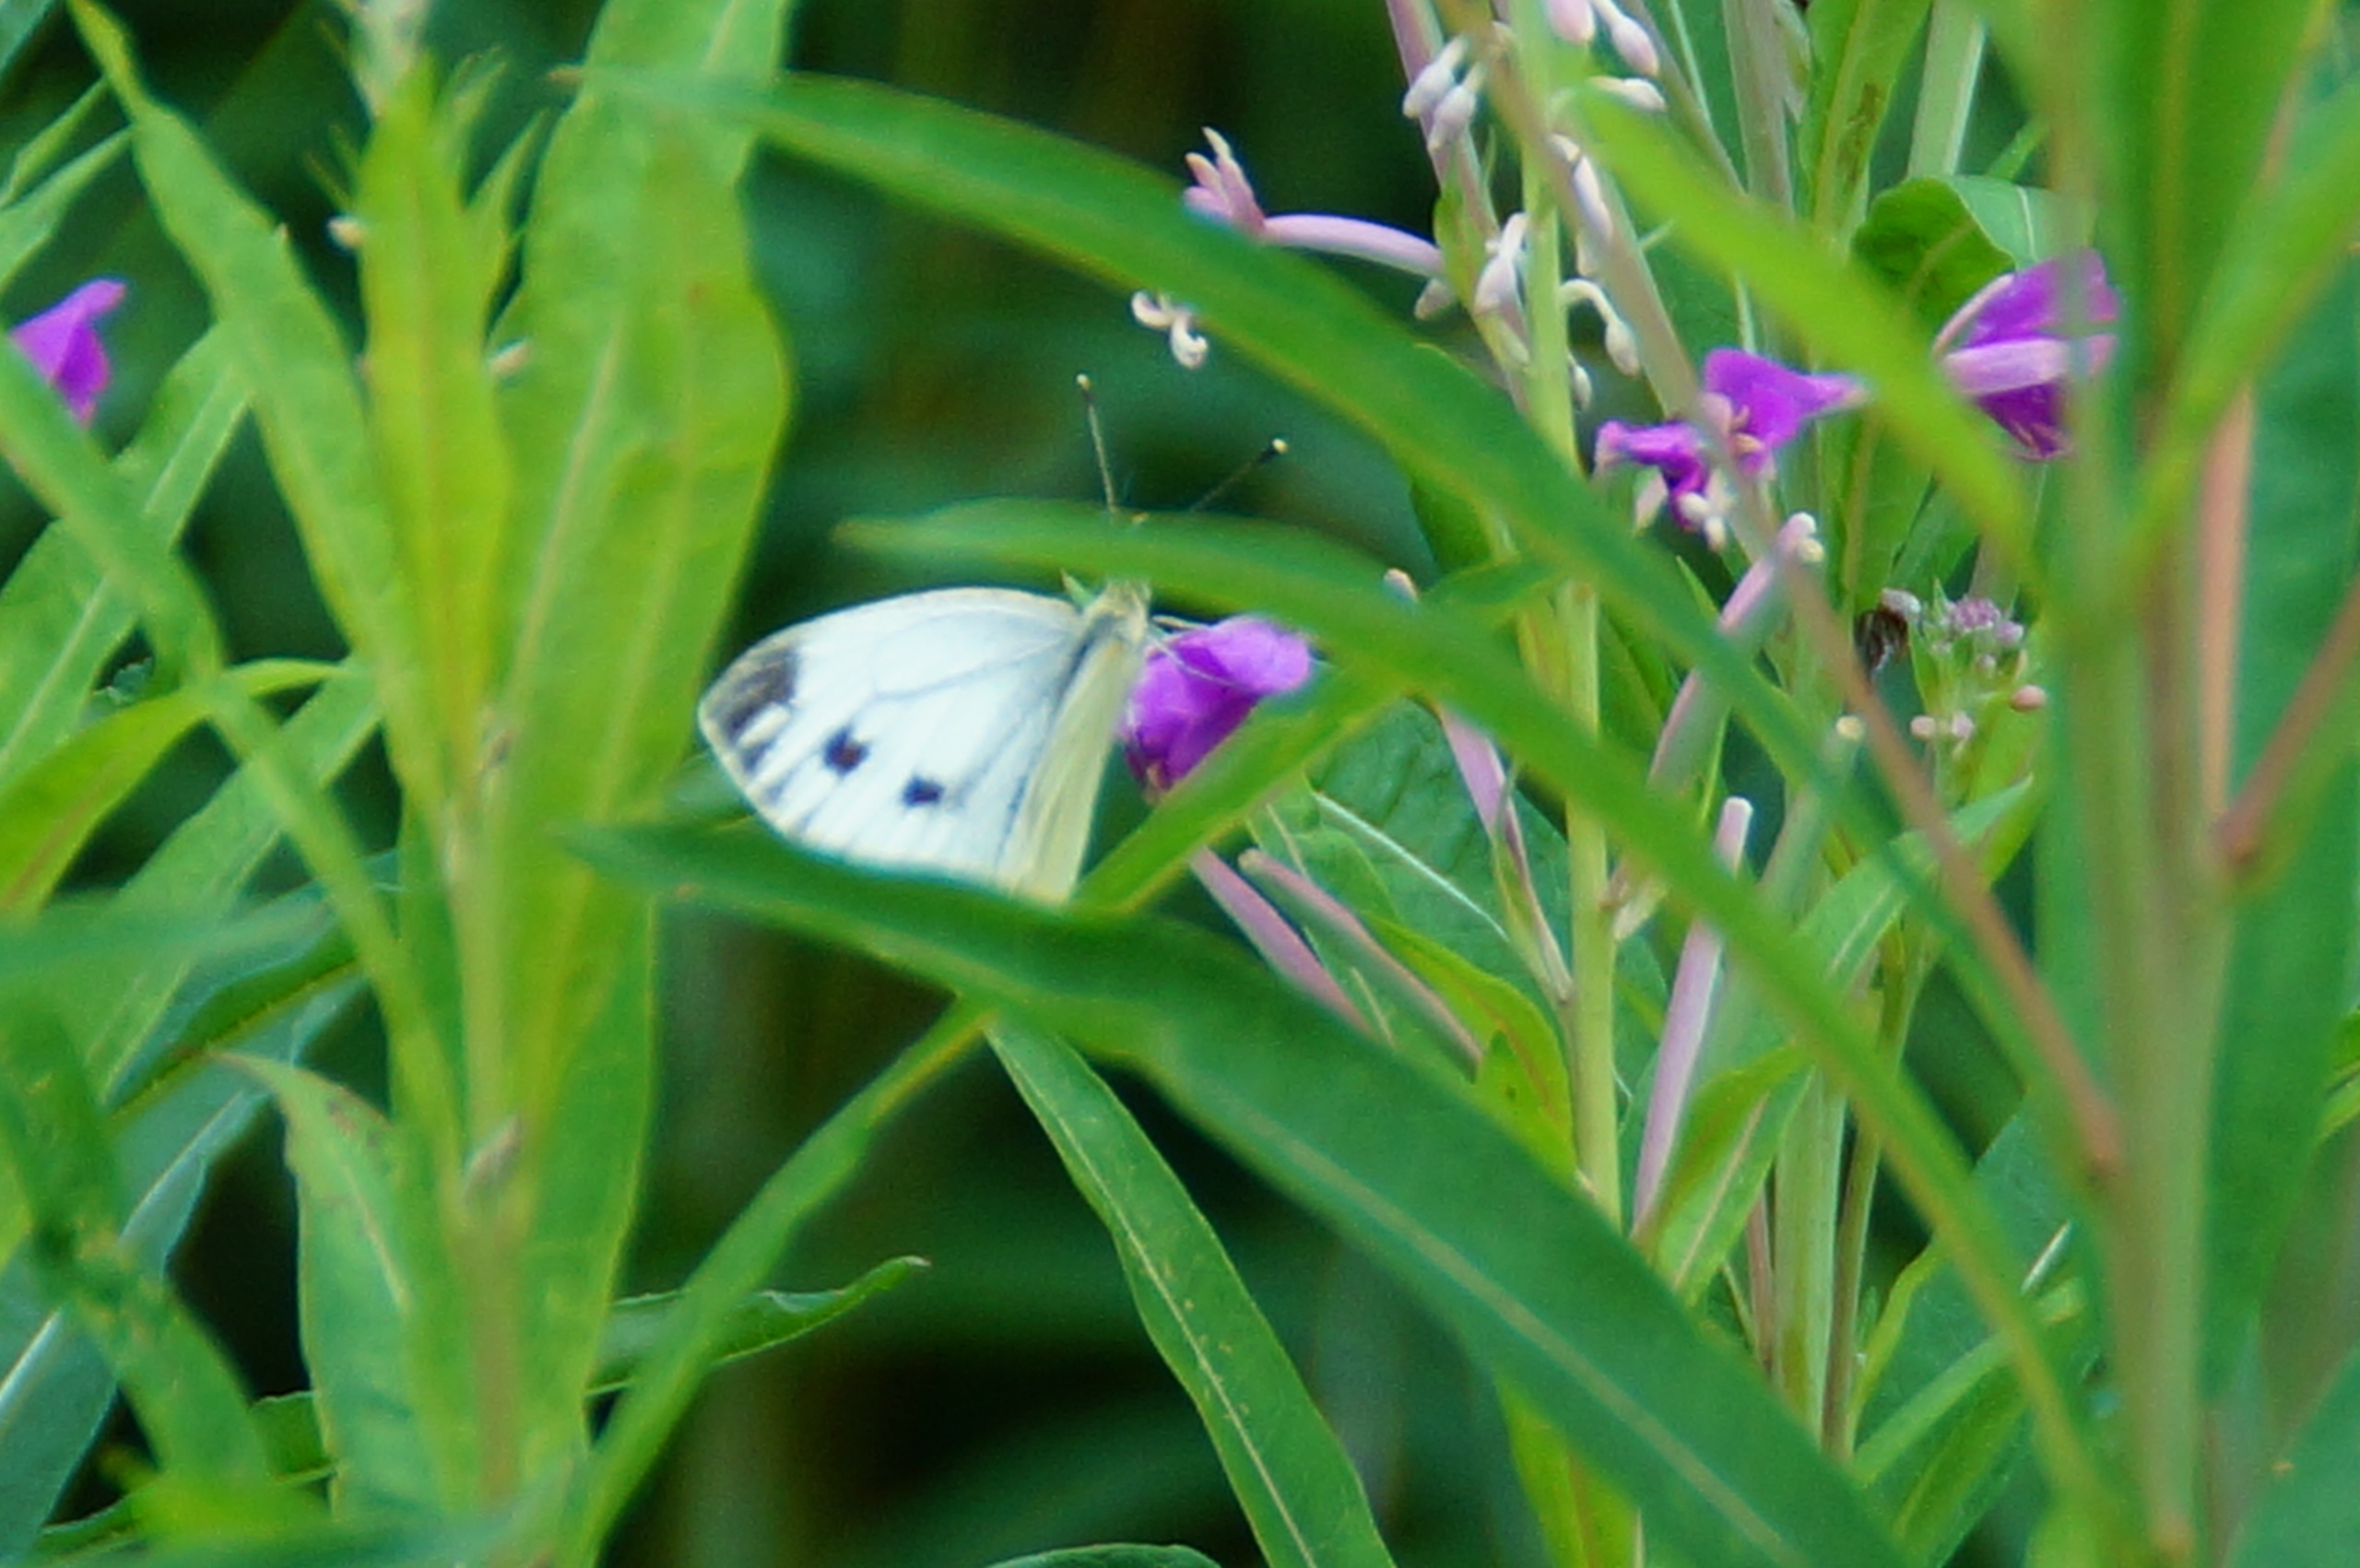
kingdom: Animalia
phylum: Arthropoda
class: Insecta
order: Lepidoptera
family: Pieridae
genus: Pieris
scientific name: Pieris napi
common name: Grønåret kålsommerfugl
